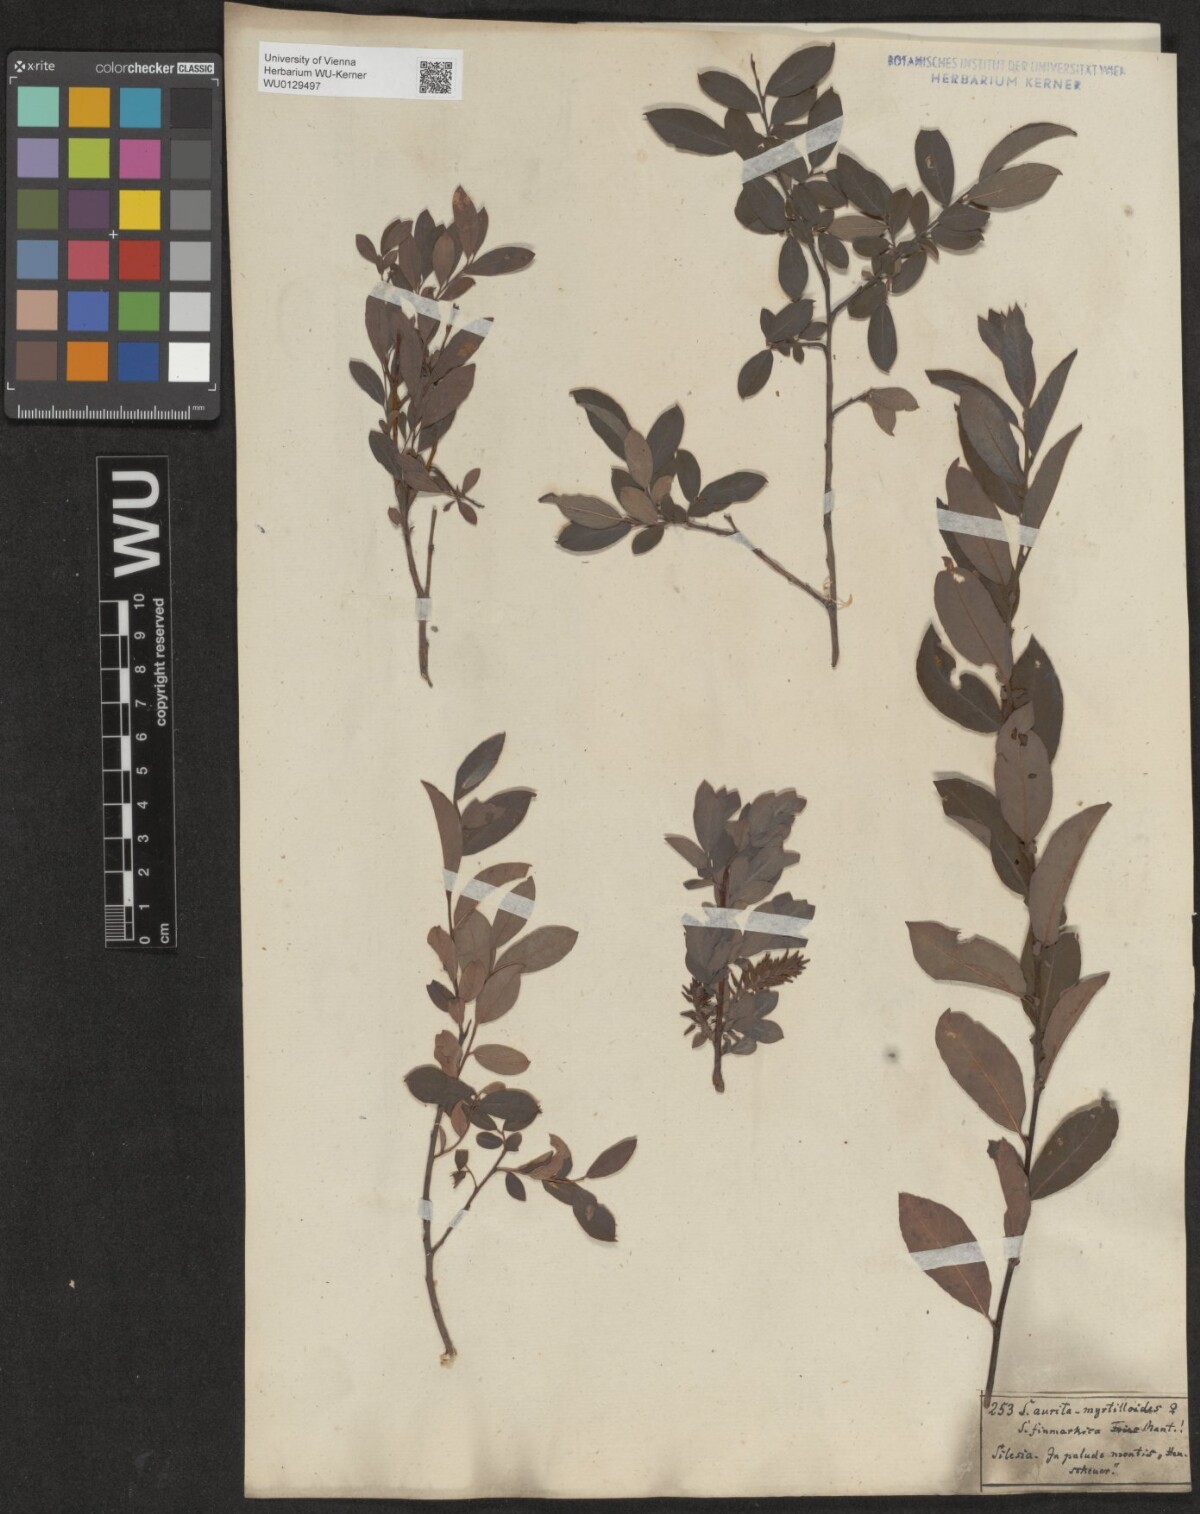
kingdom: Plantae
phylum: Tracheophyta
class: Magnoliopsida
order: Malpighiales
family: Salicaceae
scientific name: Salicaceae
